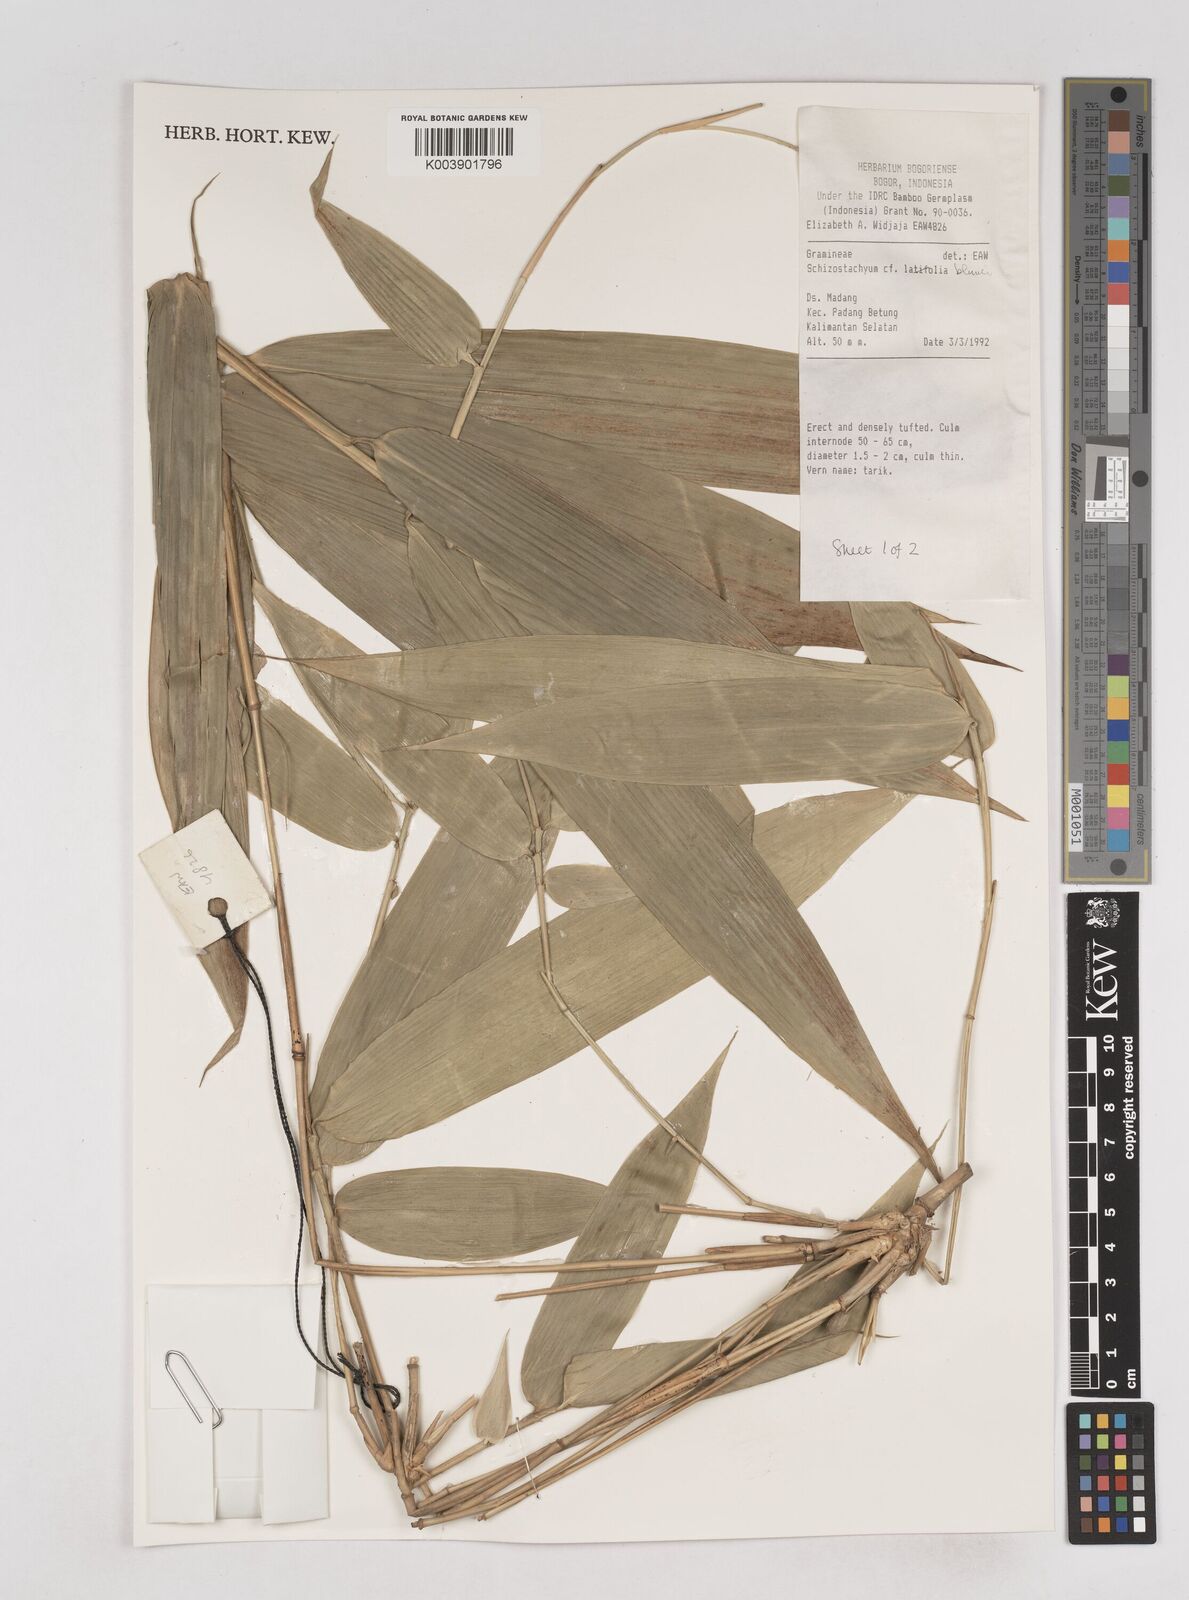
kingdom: Plantae
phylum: Tracheophyta
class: Liliopsida
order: Poales
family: Poaceae
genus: Schizostachyum
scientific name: Schizostachyum blumei
